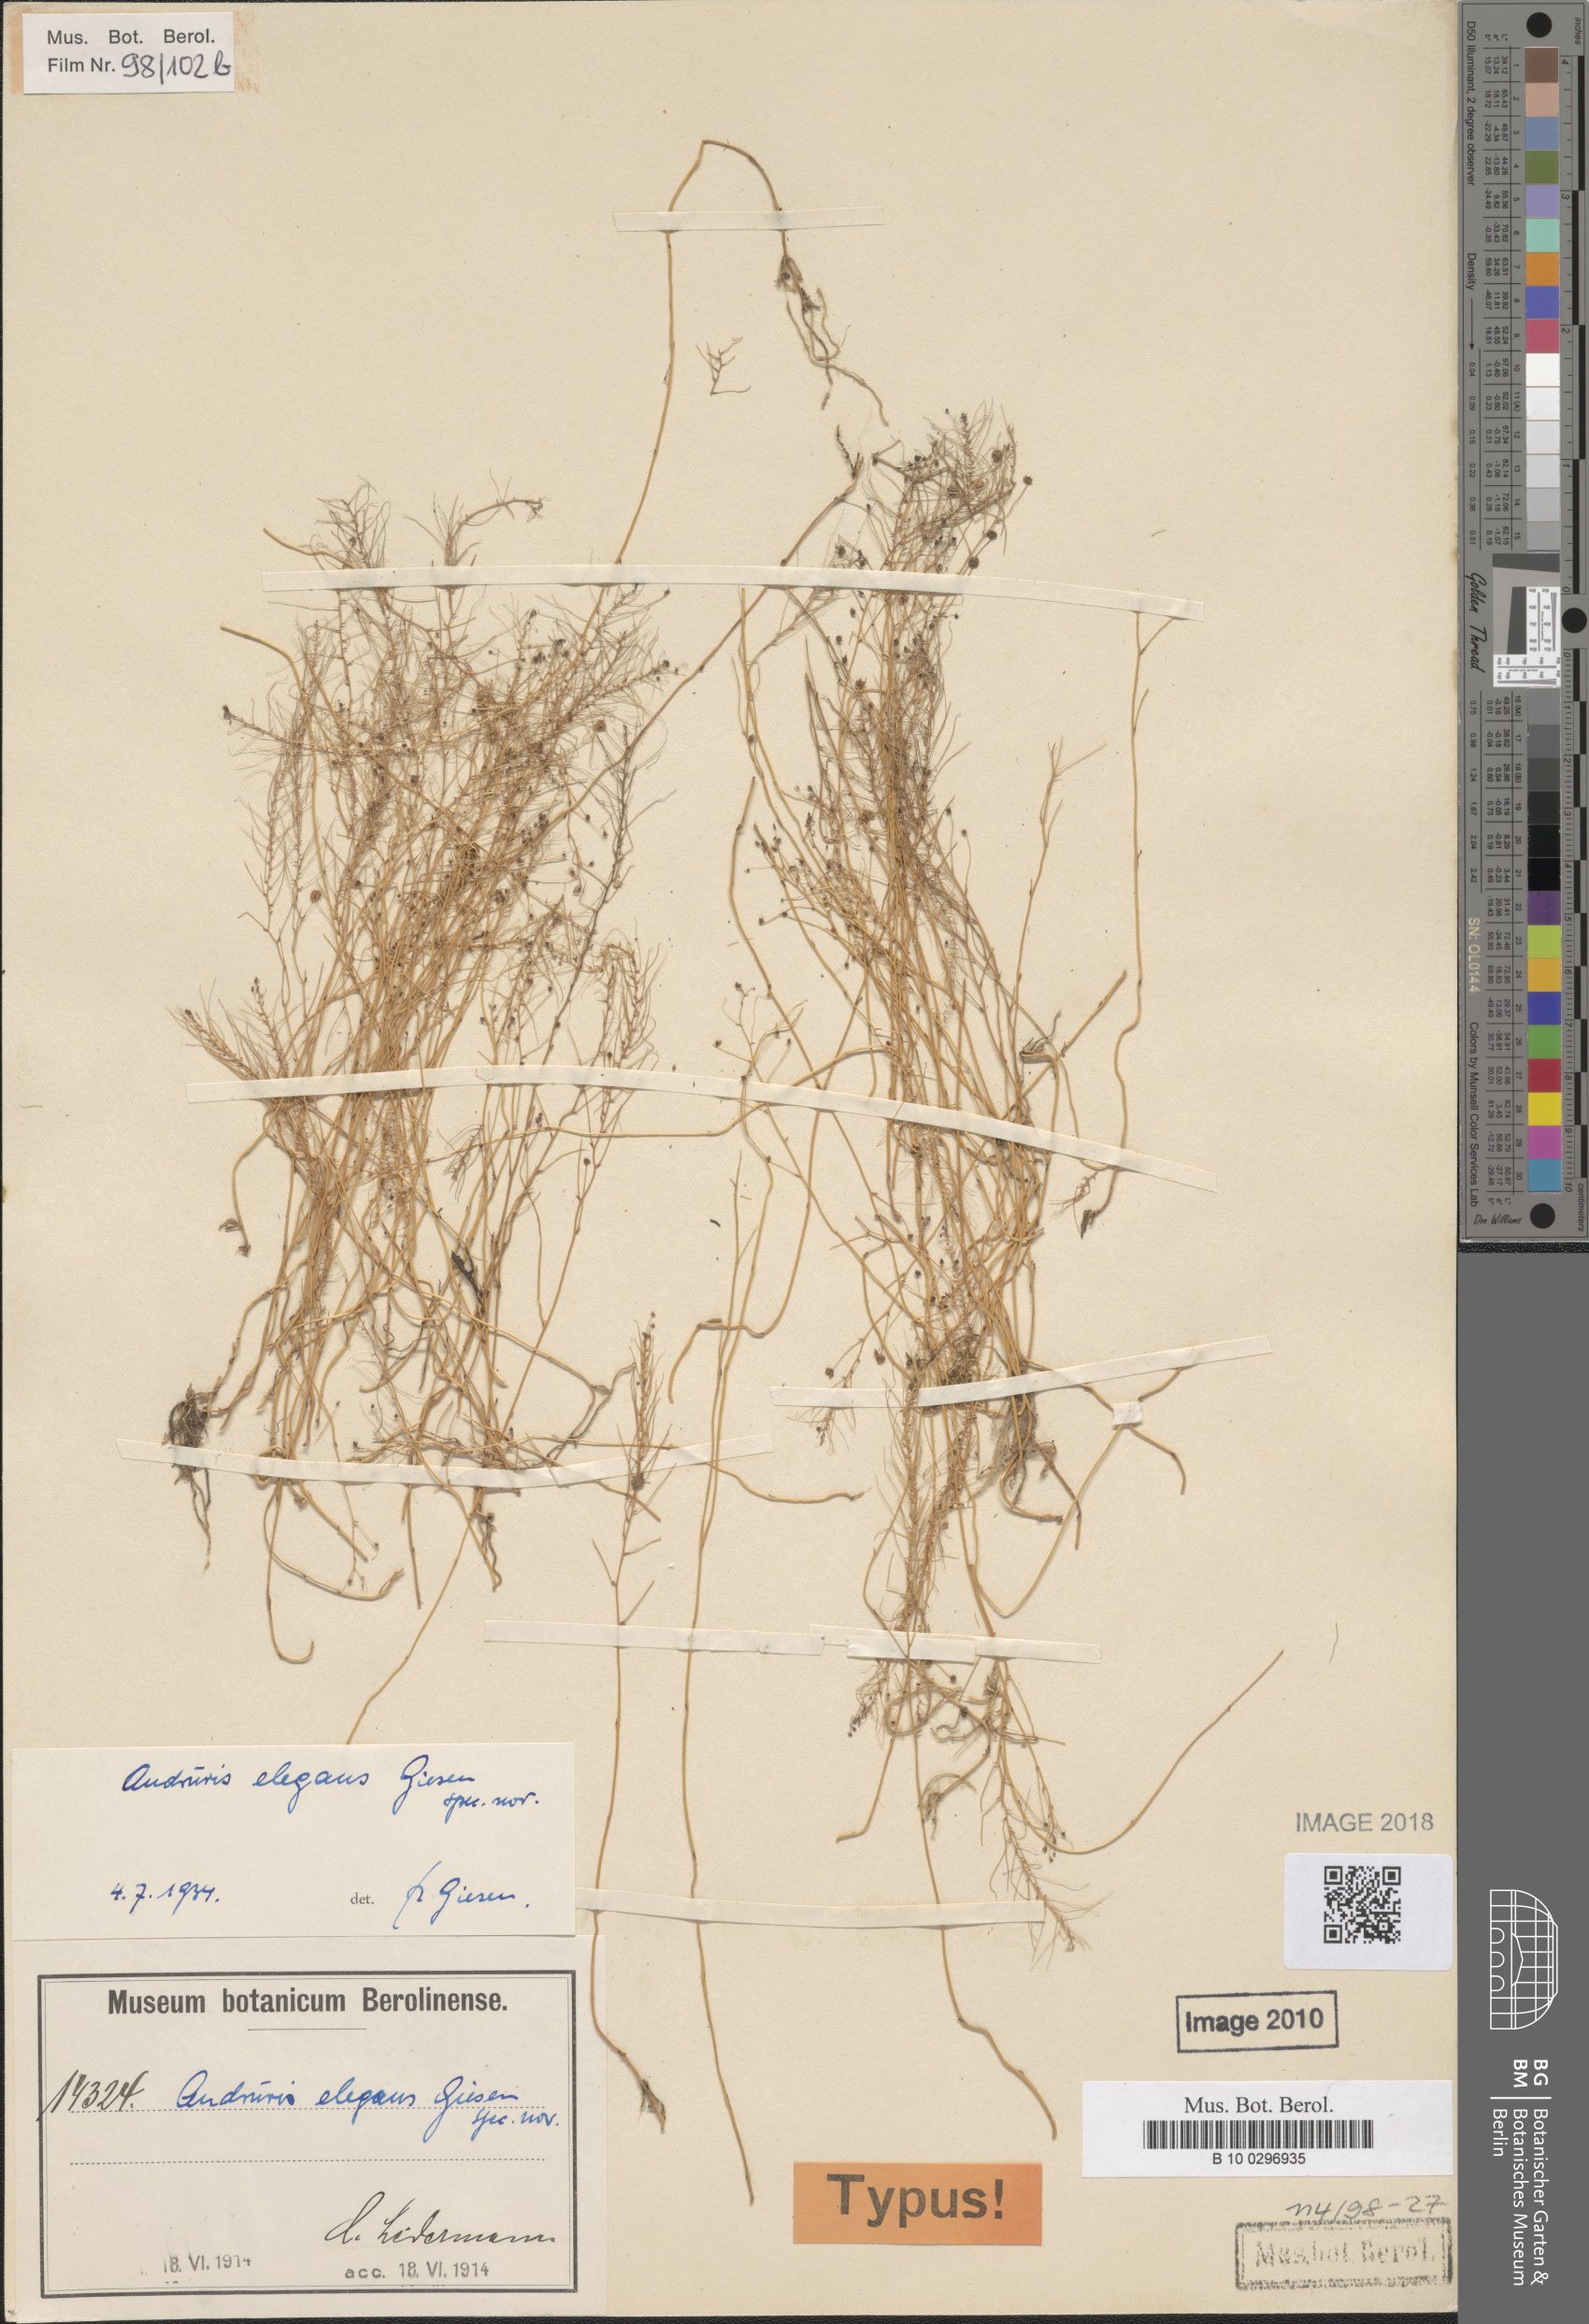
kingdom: Plantae
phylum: Tracheophyta
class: Liliopsida
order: Pandanales
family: Triuridaceae
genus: Sciaphila
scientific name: Sciaphila arfakiana
